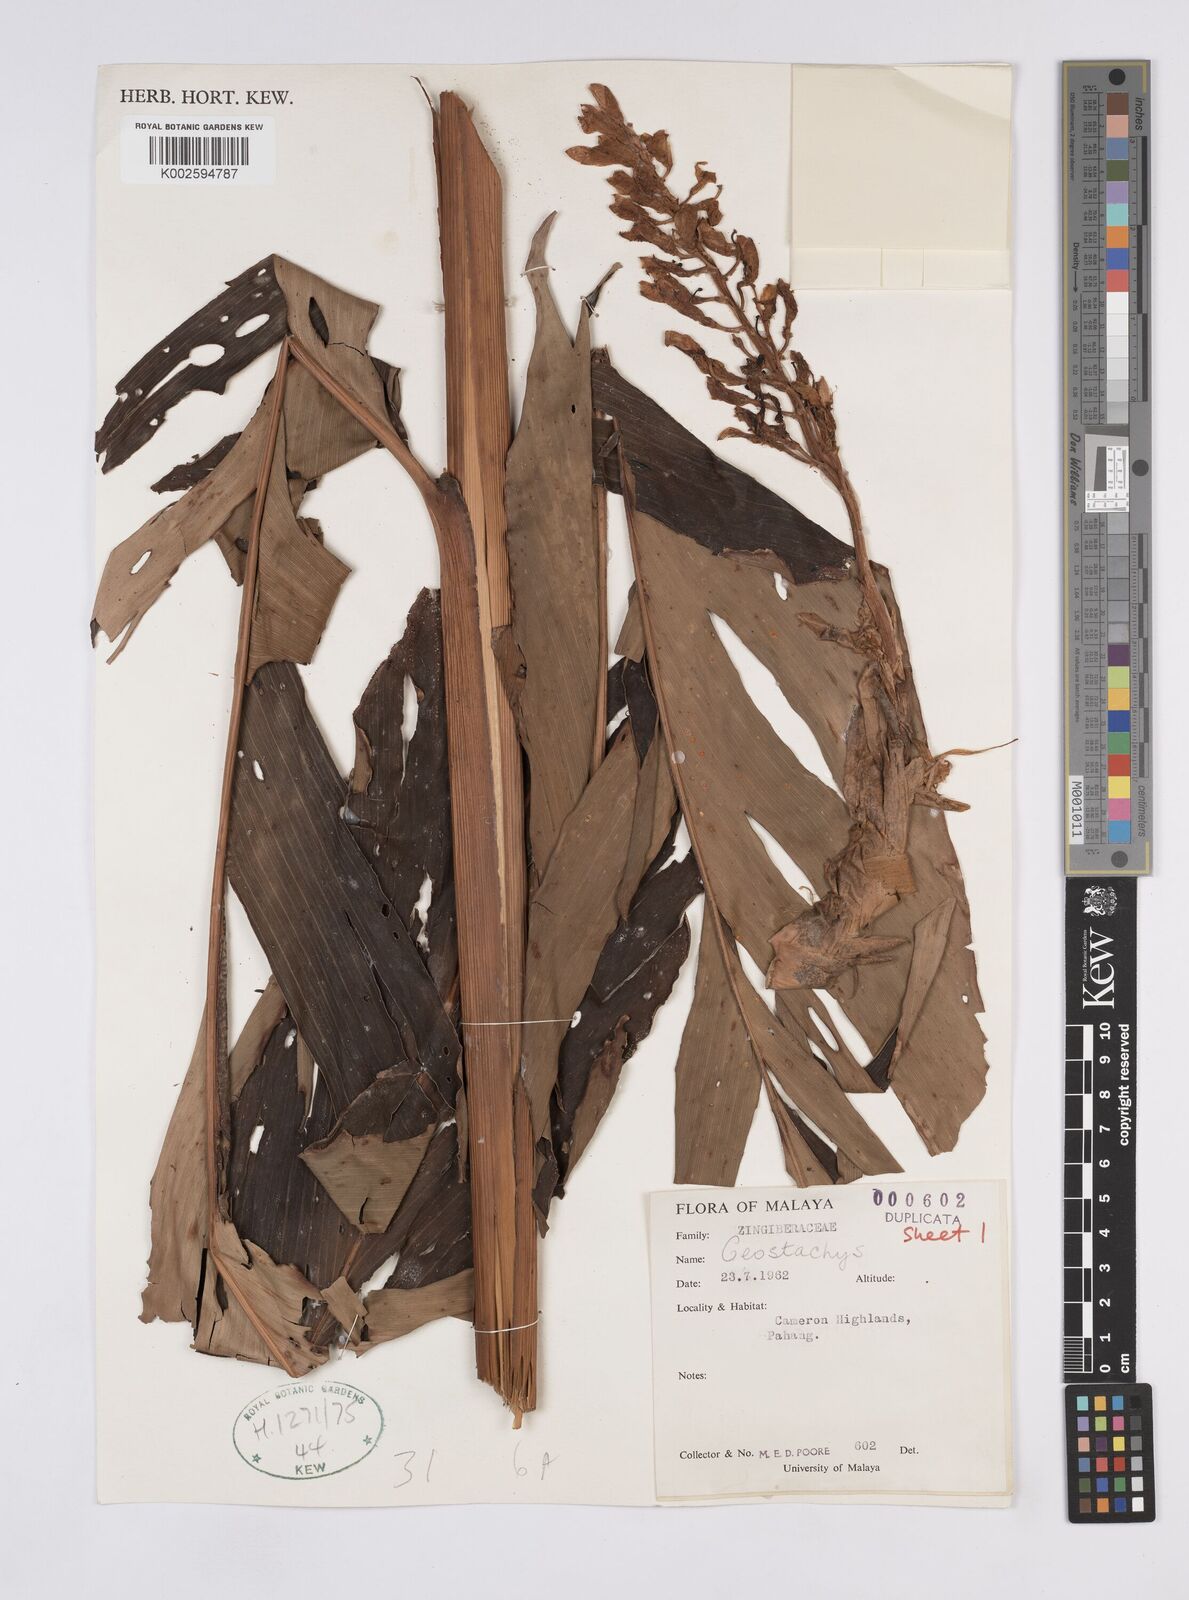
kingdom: Plantae
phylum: Tracheophyta
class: Liliopsida
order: Zingiberales
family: Zingiberaceae
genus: Geostachys
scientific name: Geostachys megaphylla
